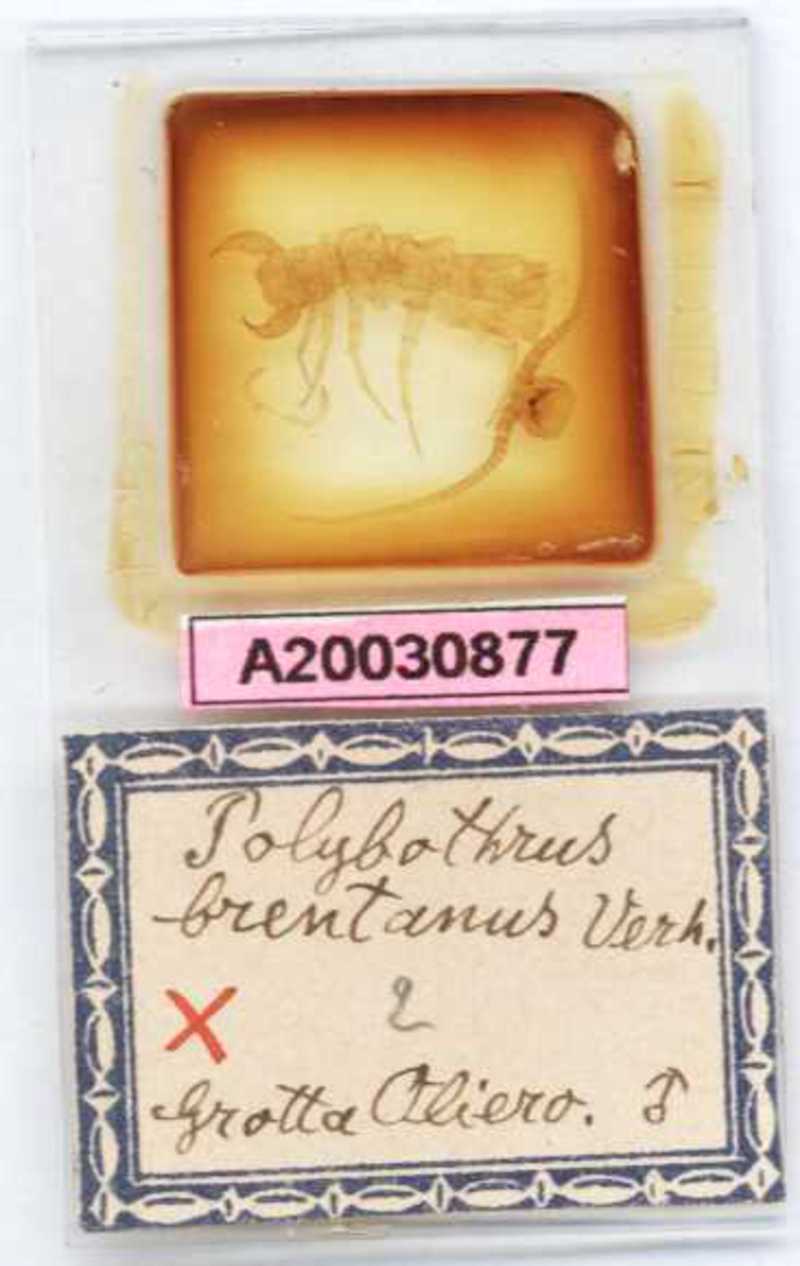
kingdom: Animalia
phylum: Arthropoda
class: Chilopoda
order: Lithobiomorpha
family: Lithobiidae
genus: Eupolybothrus
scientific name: Eupolybothrus tridentinus
